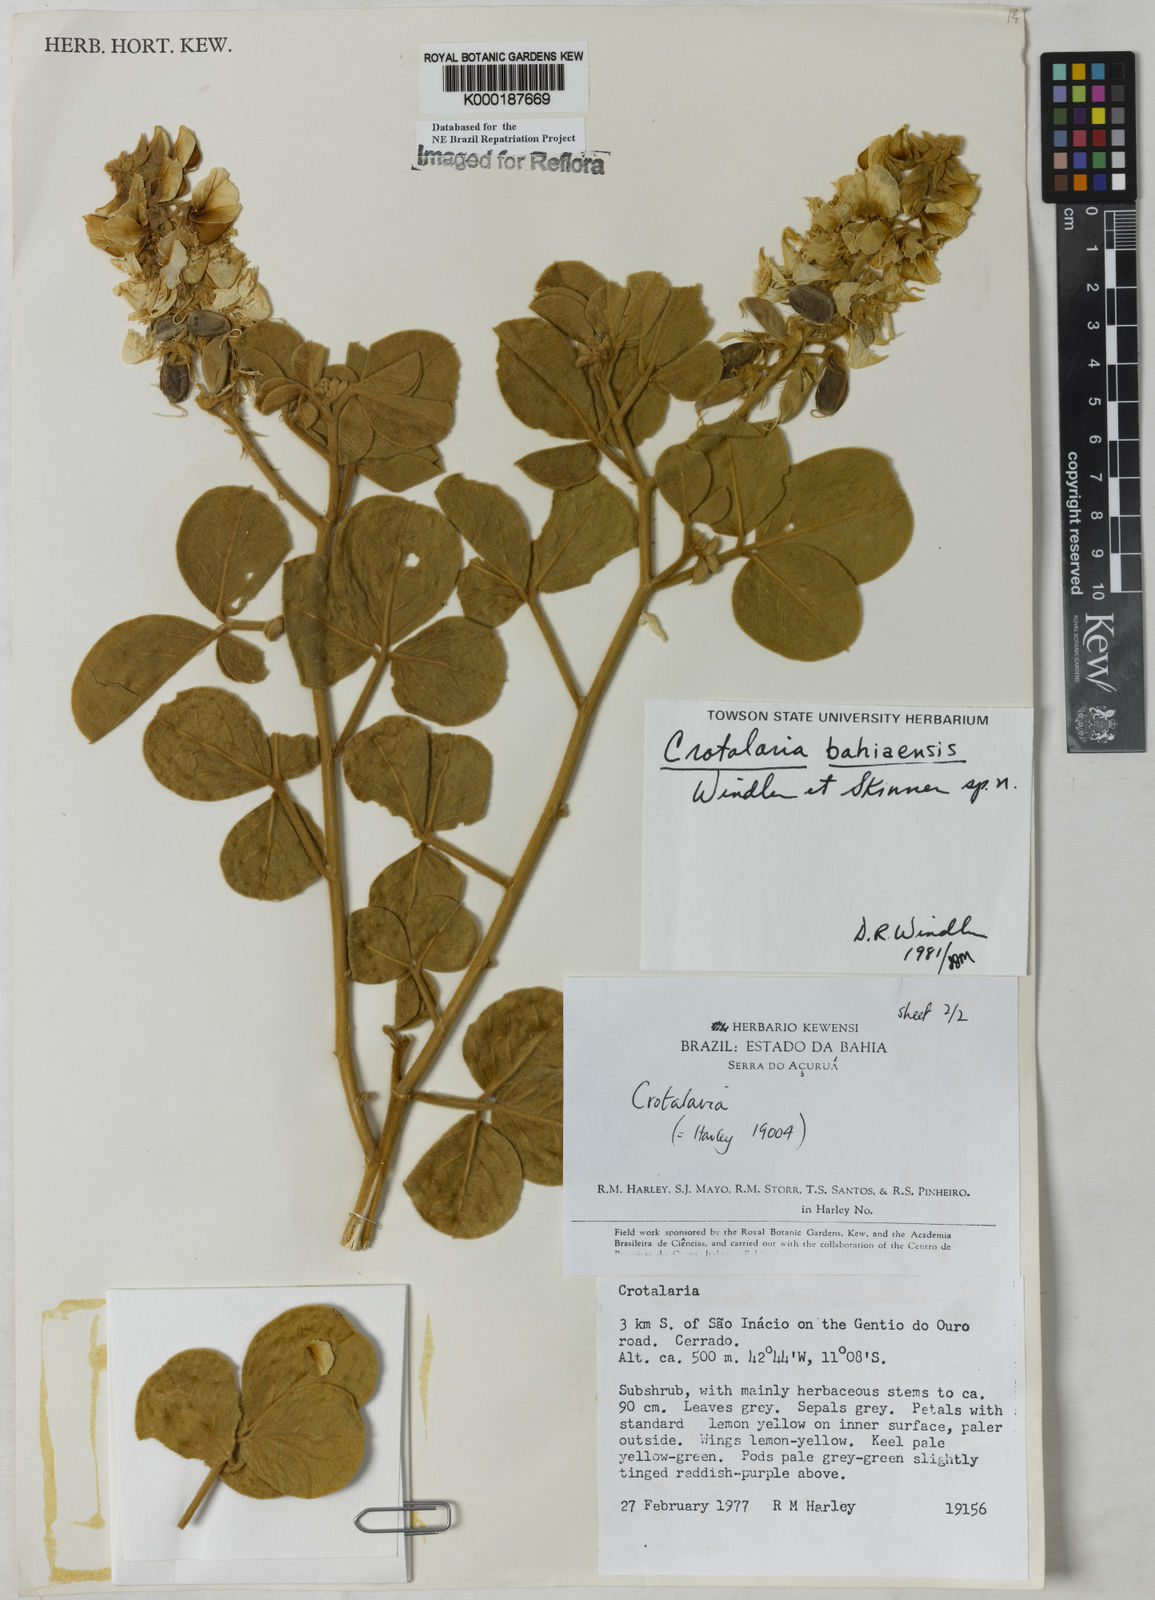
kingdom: Plantae
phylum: Tracheophyta
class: Magnoliopsida
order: Fabales
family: Fabaceae
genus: Crotalaria
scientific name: Crotalaria
